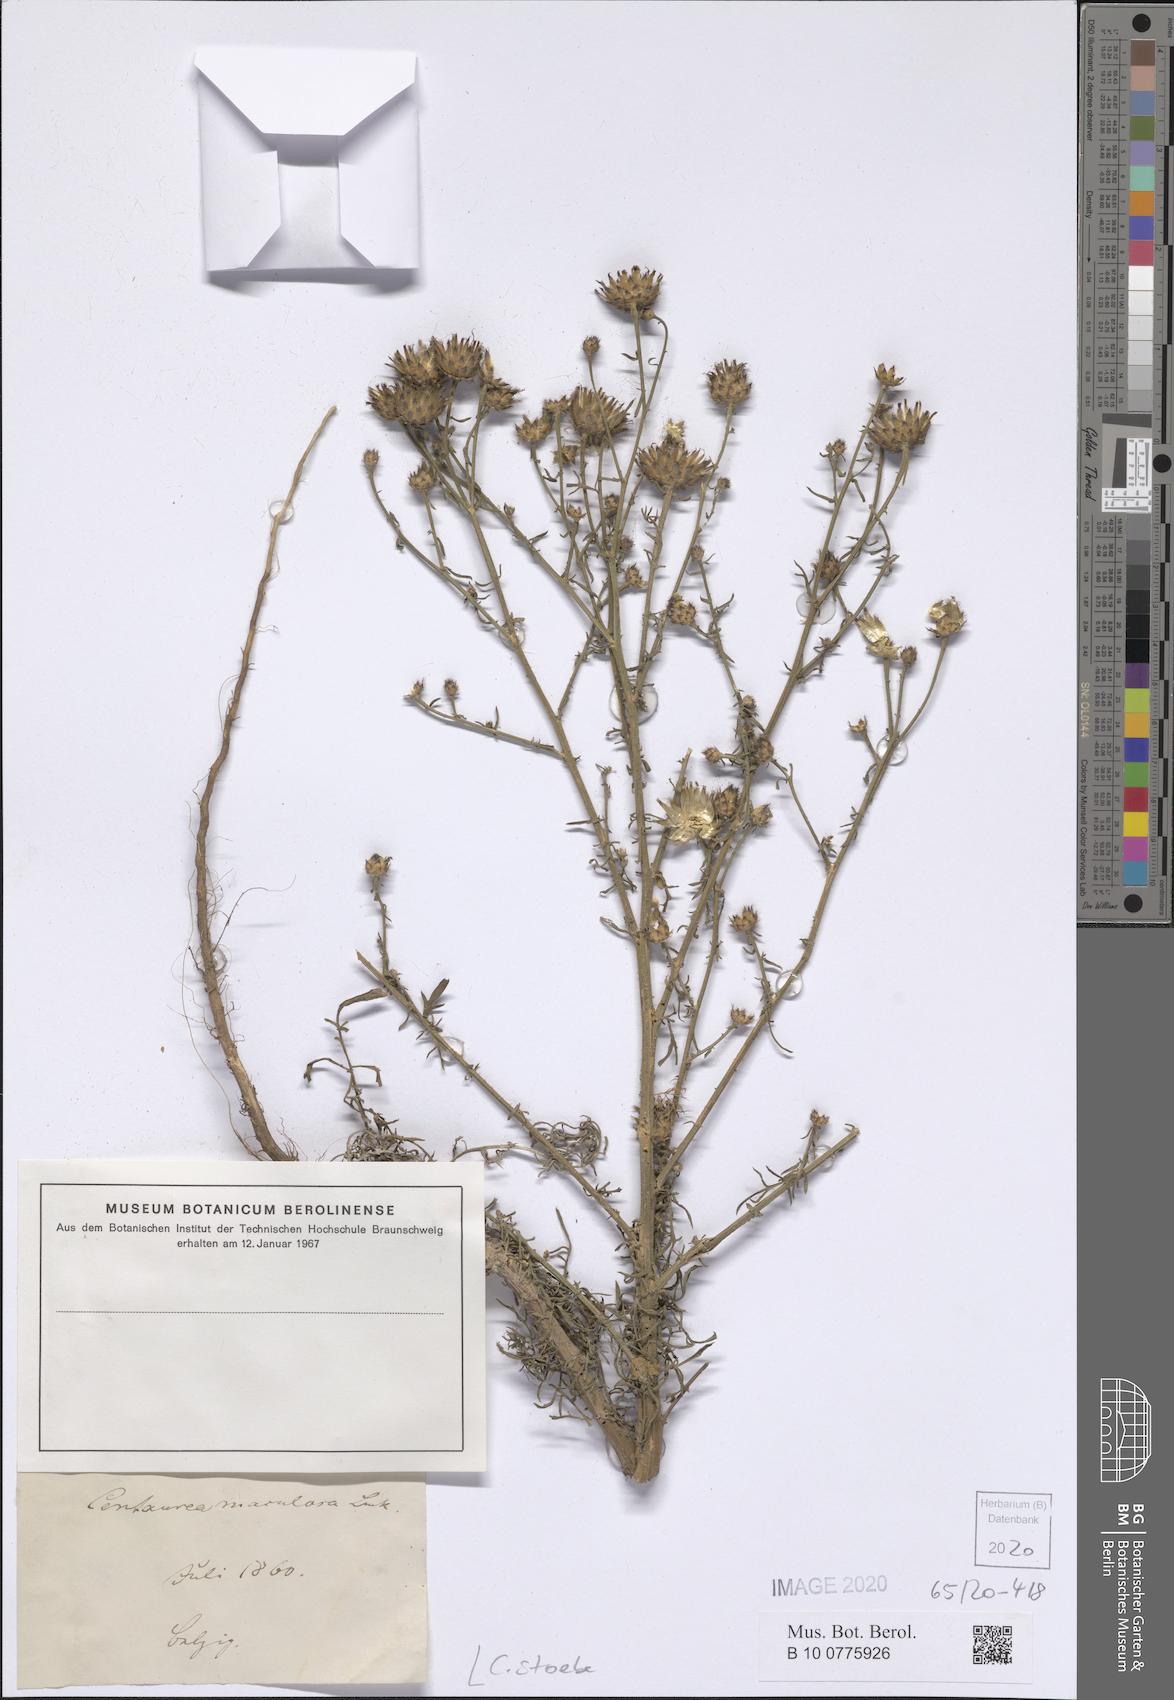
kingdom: Plantae
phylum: Tracheophyta
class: Magnoliopsida
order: Asterales
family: Asteraceae
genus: Centaurea
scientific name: Centaurea stoebe
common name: Spotted knapweed
